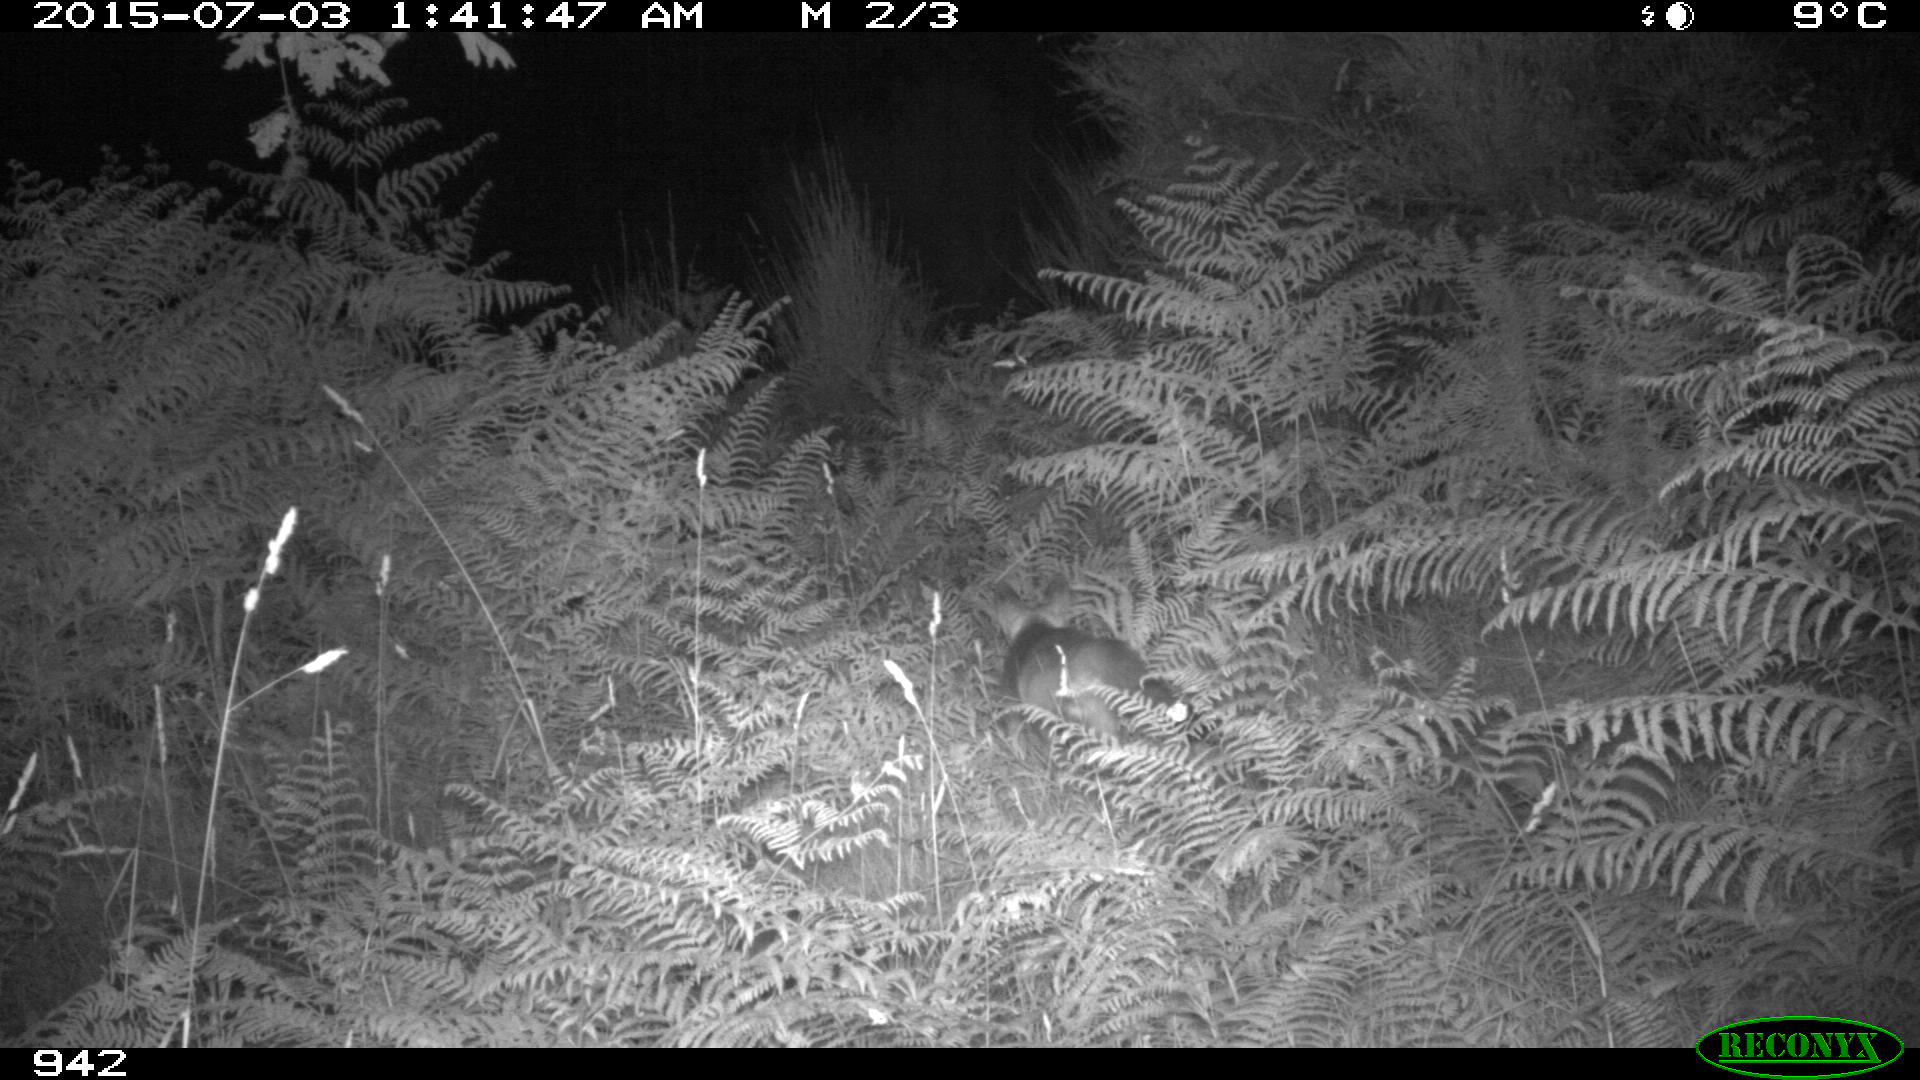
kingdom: Animalia
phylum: Chordata
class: Mammalia
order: Carnivora
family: Canidae
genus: Vulpes
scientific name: Vulpes vulpes
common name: Red fox
